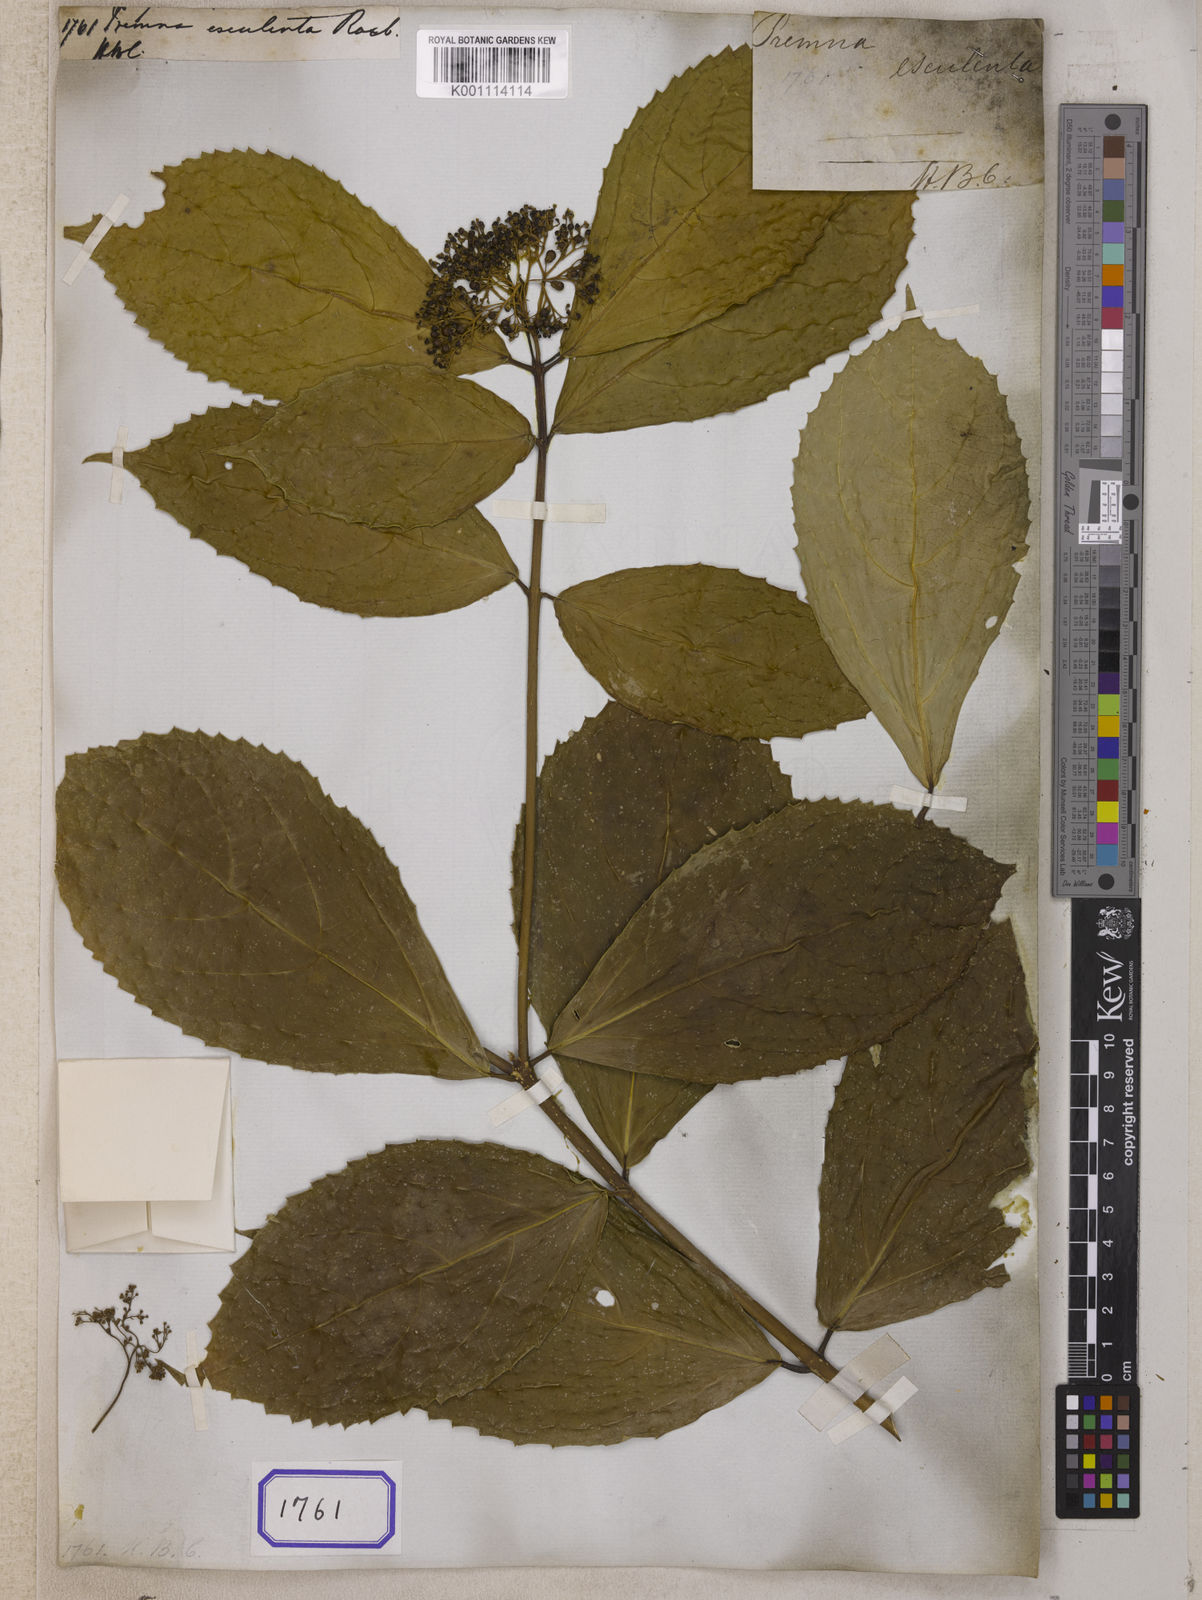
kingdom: Plantae
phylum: Tracheophyta
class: Magnoliopsida
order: Lamiales
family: Lamiaceae
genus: Premna
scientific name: Premna esculenta
